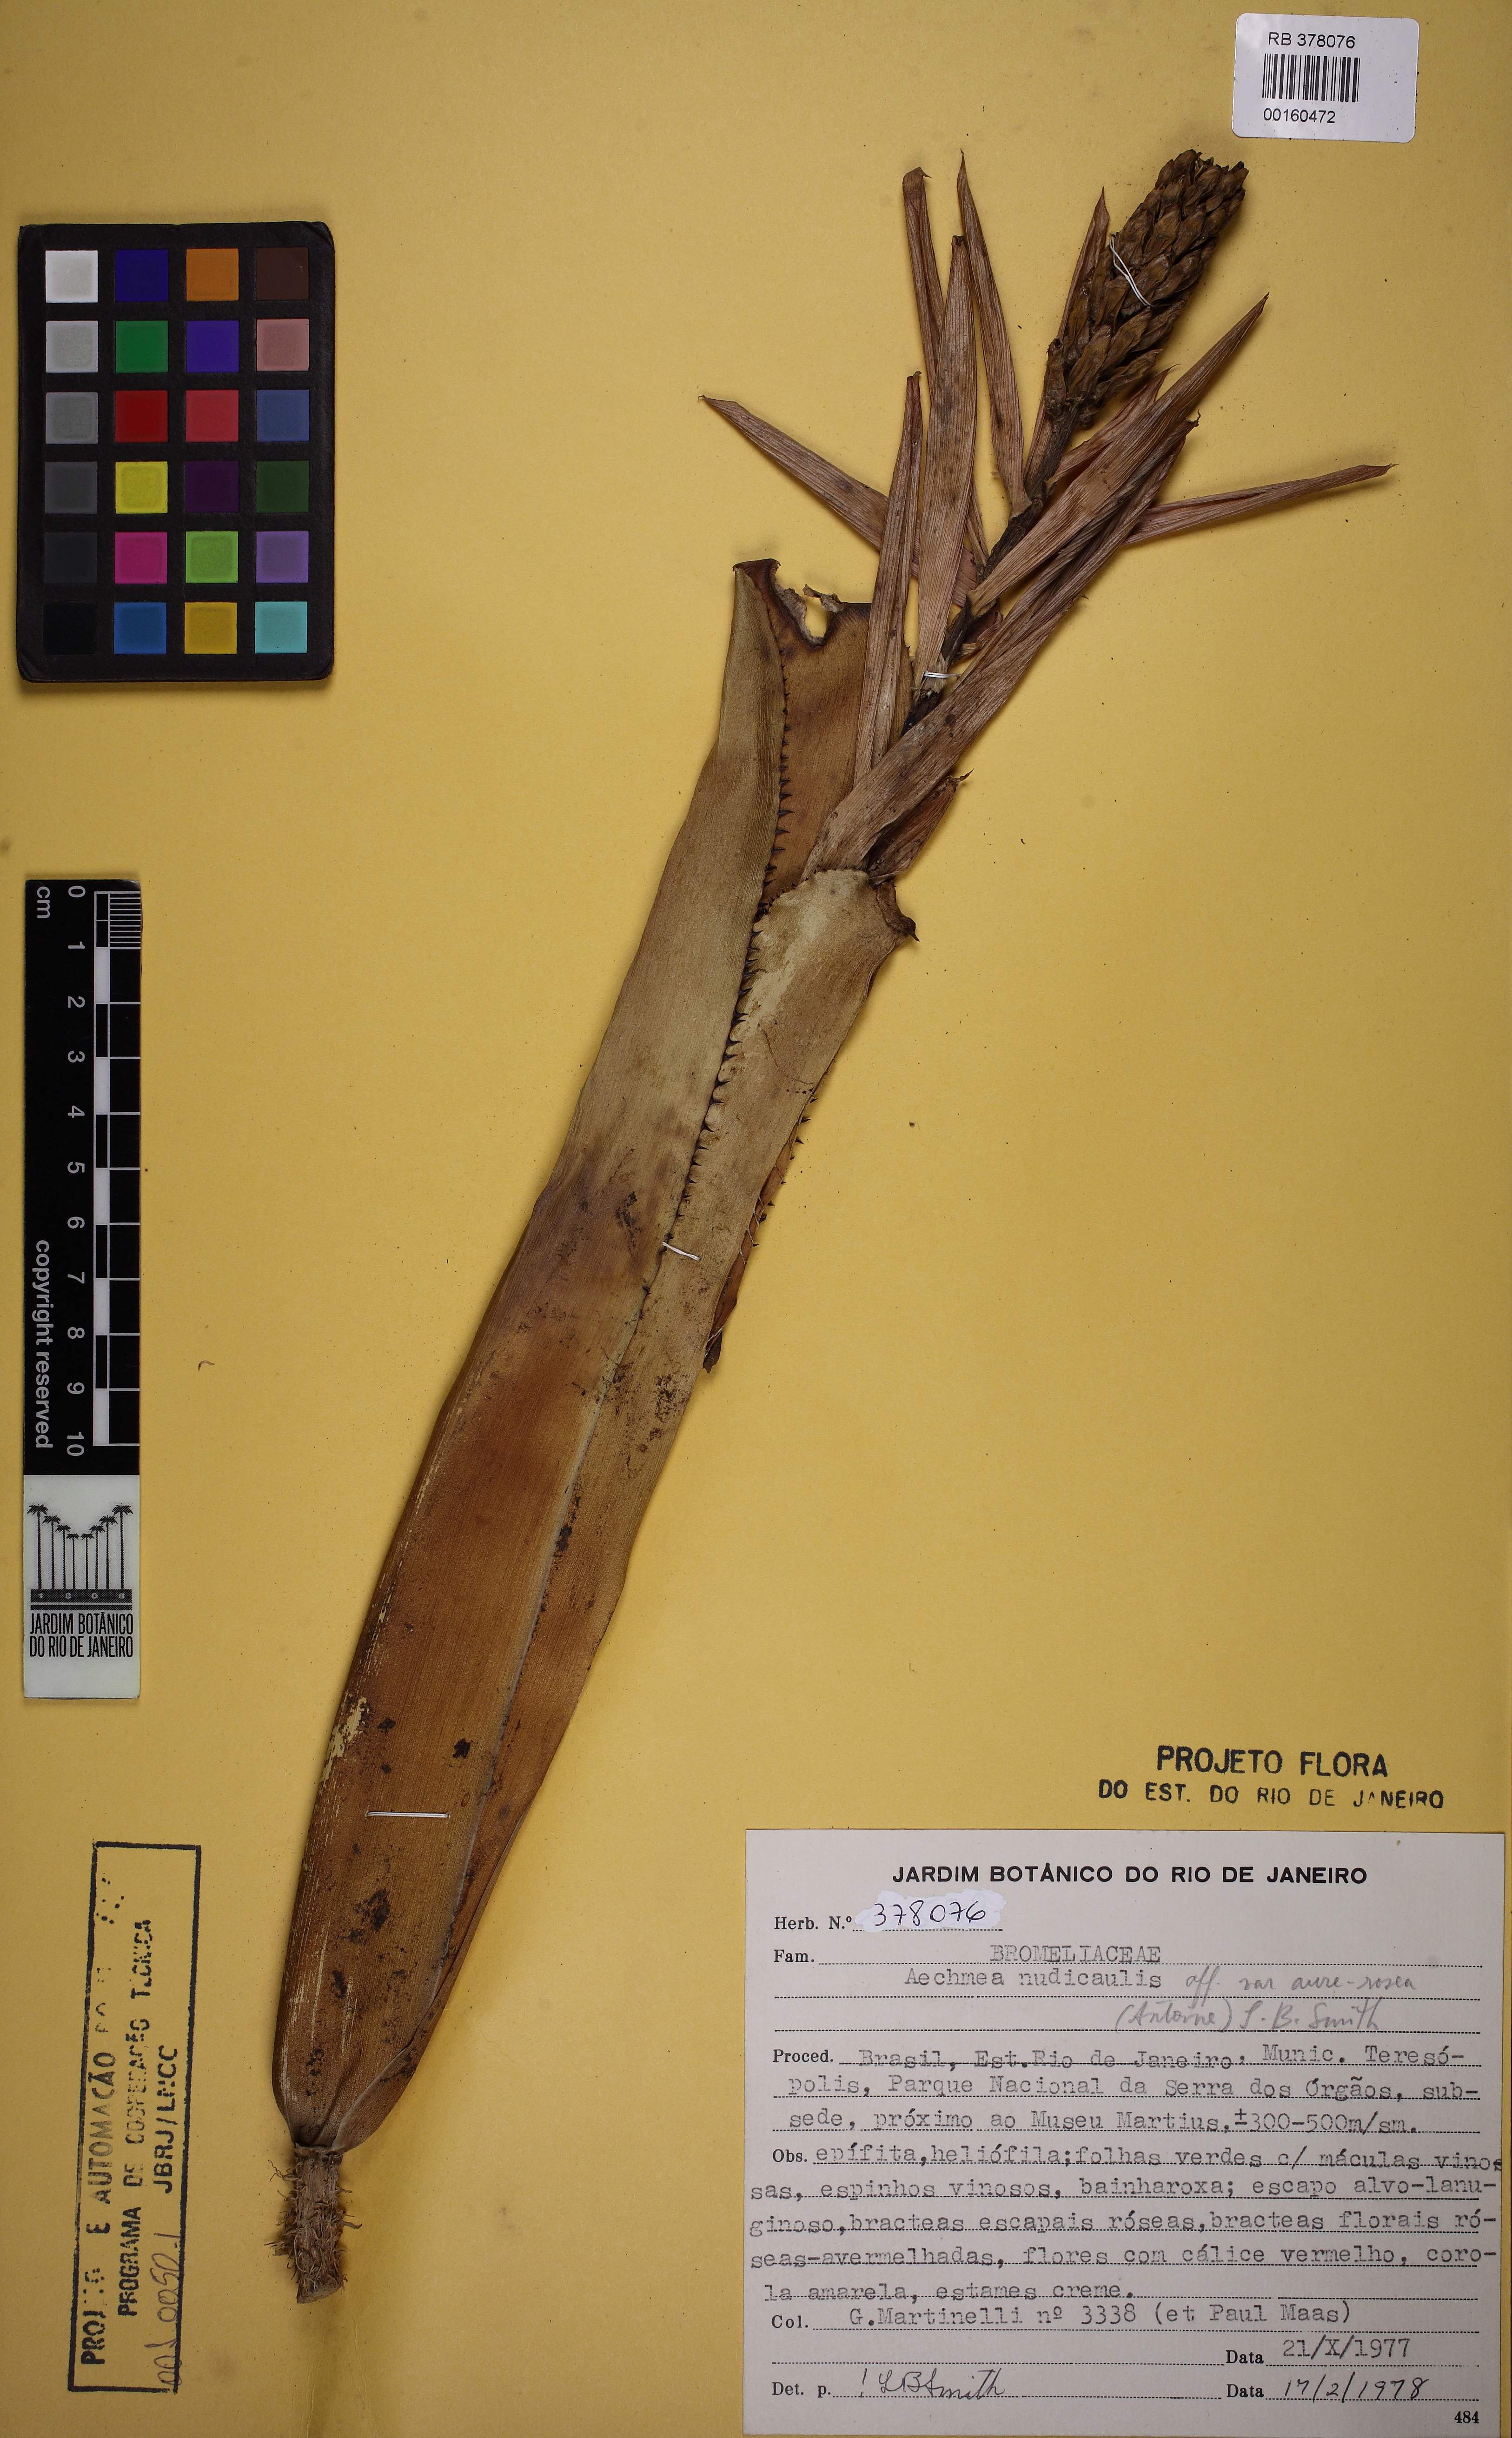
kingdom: Plantae
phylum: Tracheophyta
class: Liliopsida
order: Poales
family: Bromeliaceae
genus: Aechmea
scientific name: Aechmea nudicaulis
